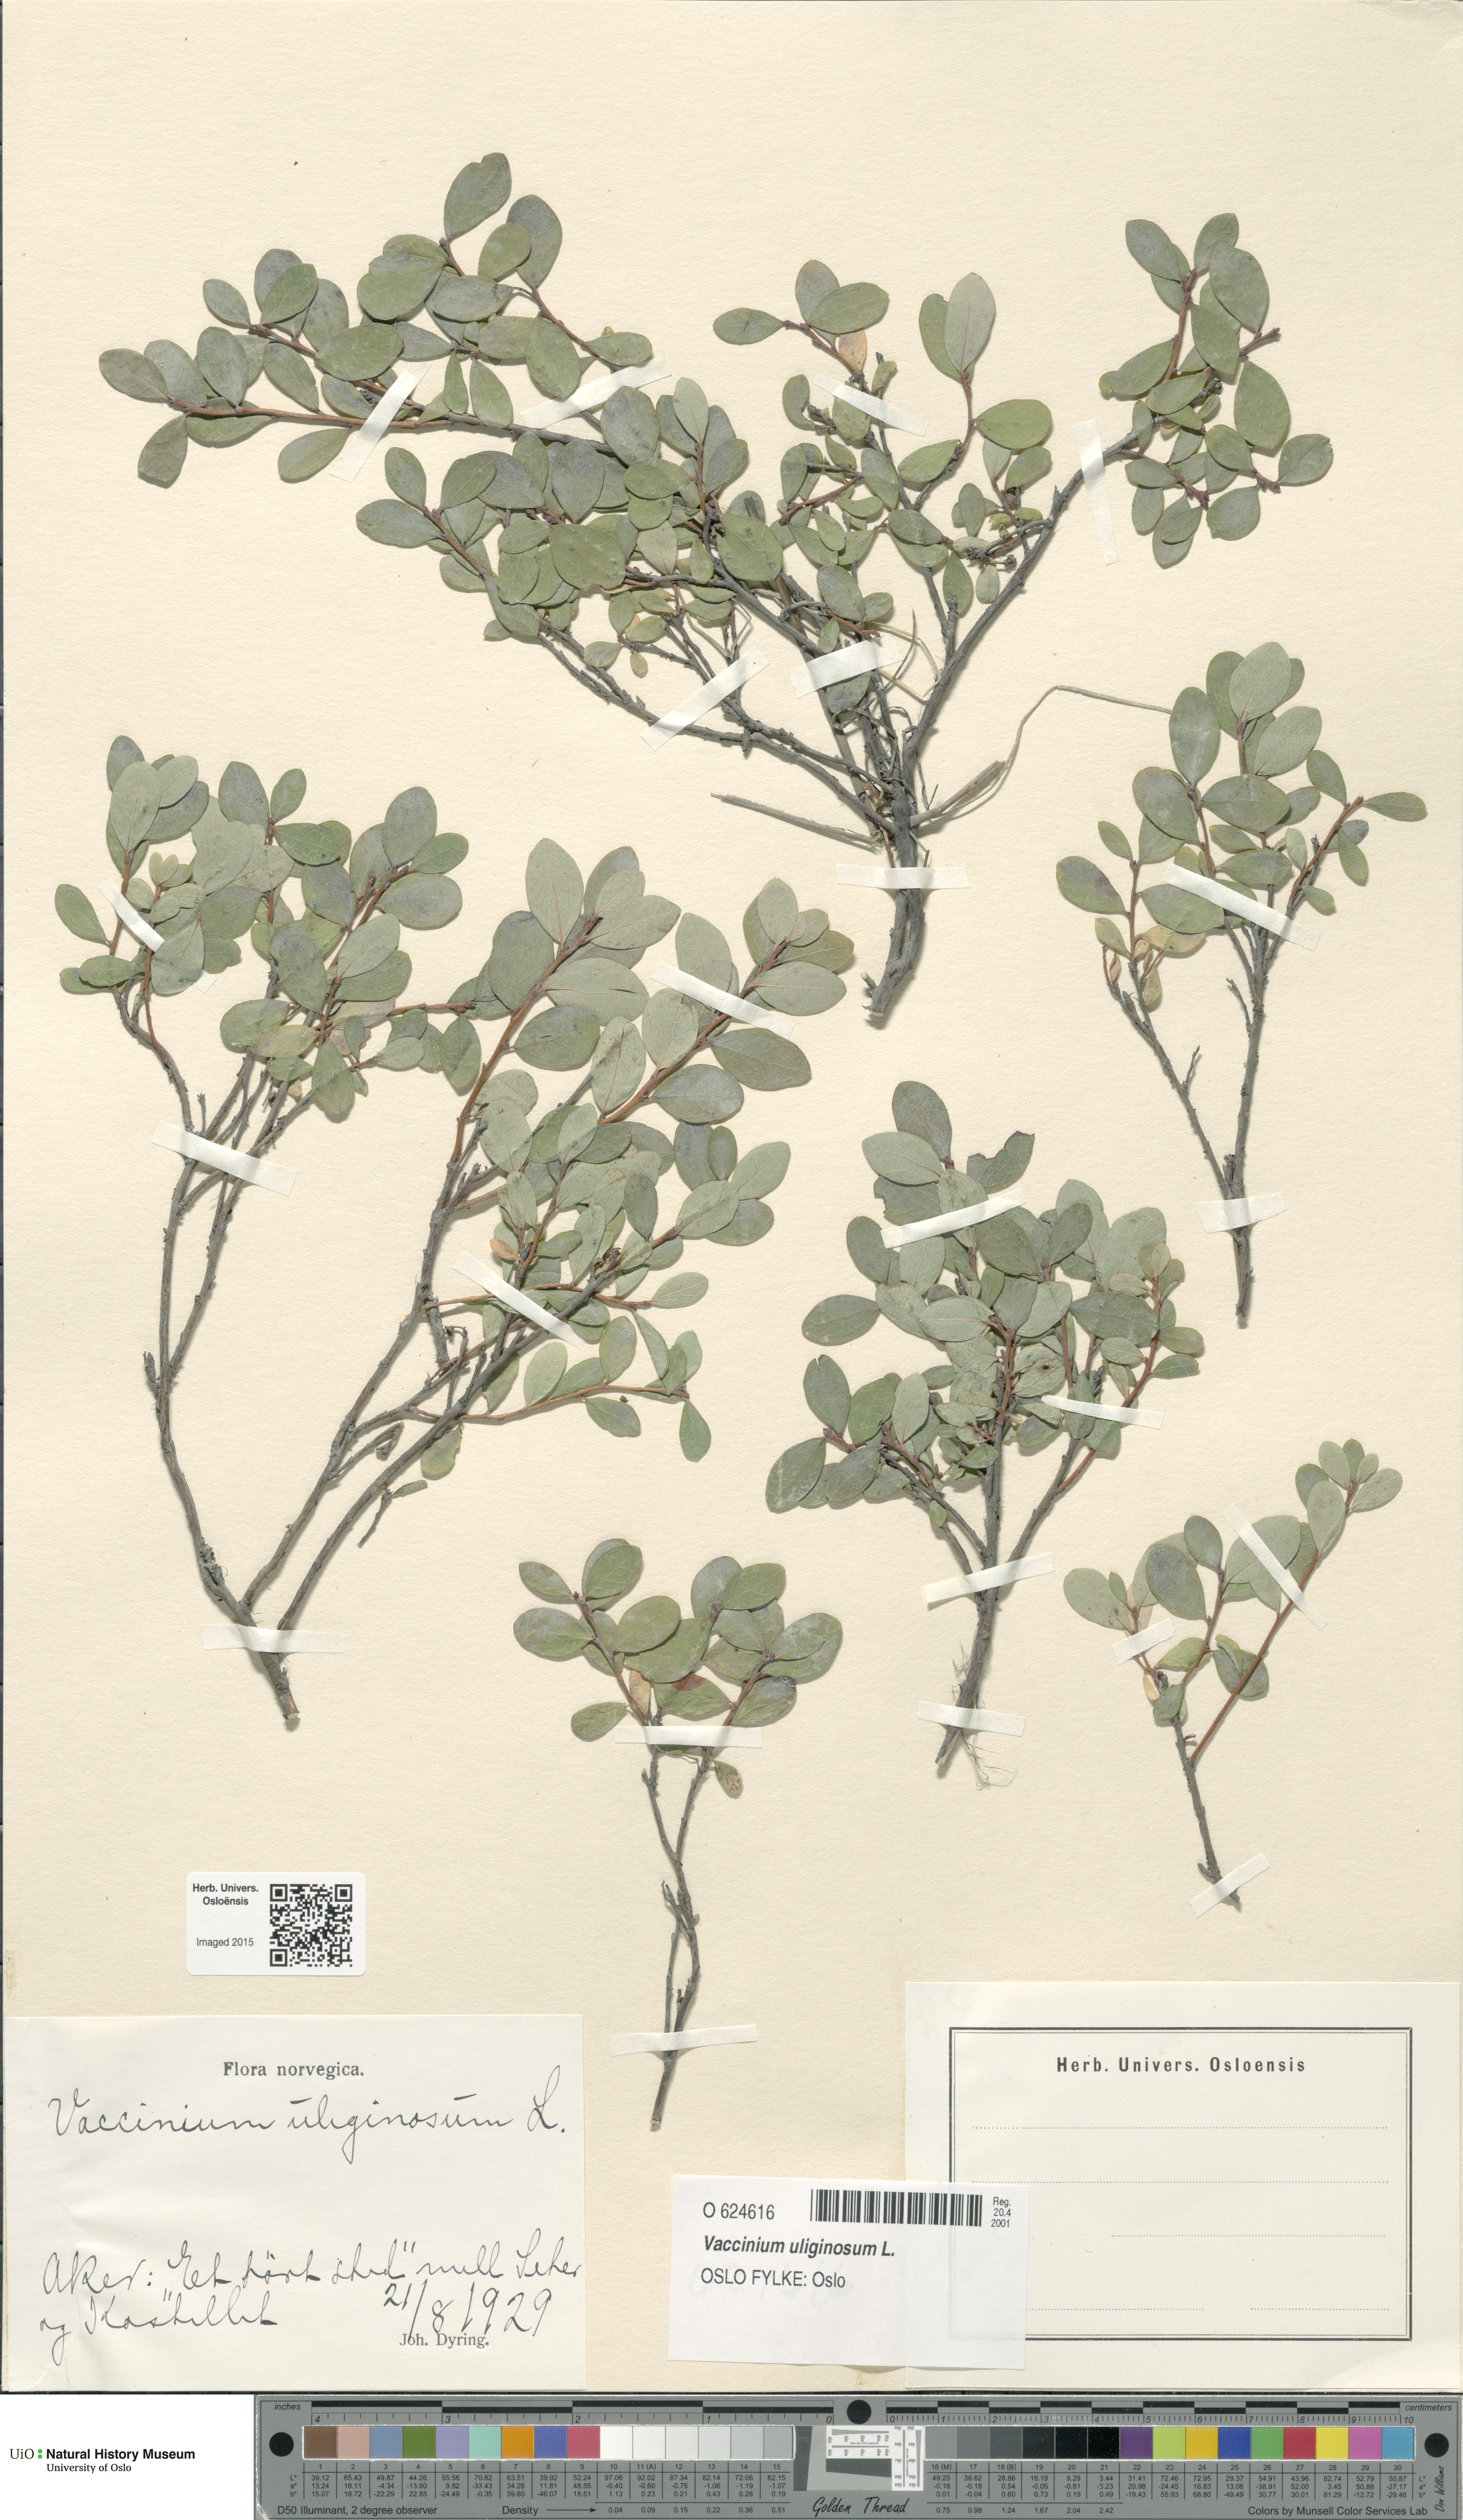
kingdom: Plantae
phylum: Tracheophyta
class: Magnoliopsida
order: Ericales
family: Ericaceae
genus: Vaccinium
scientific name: Vaccinium uliginosum
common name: Bog bilberry
